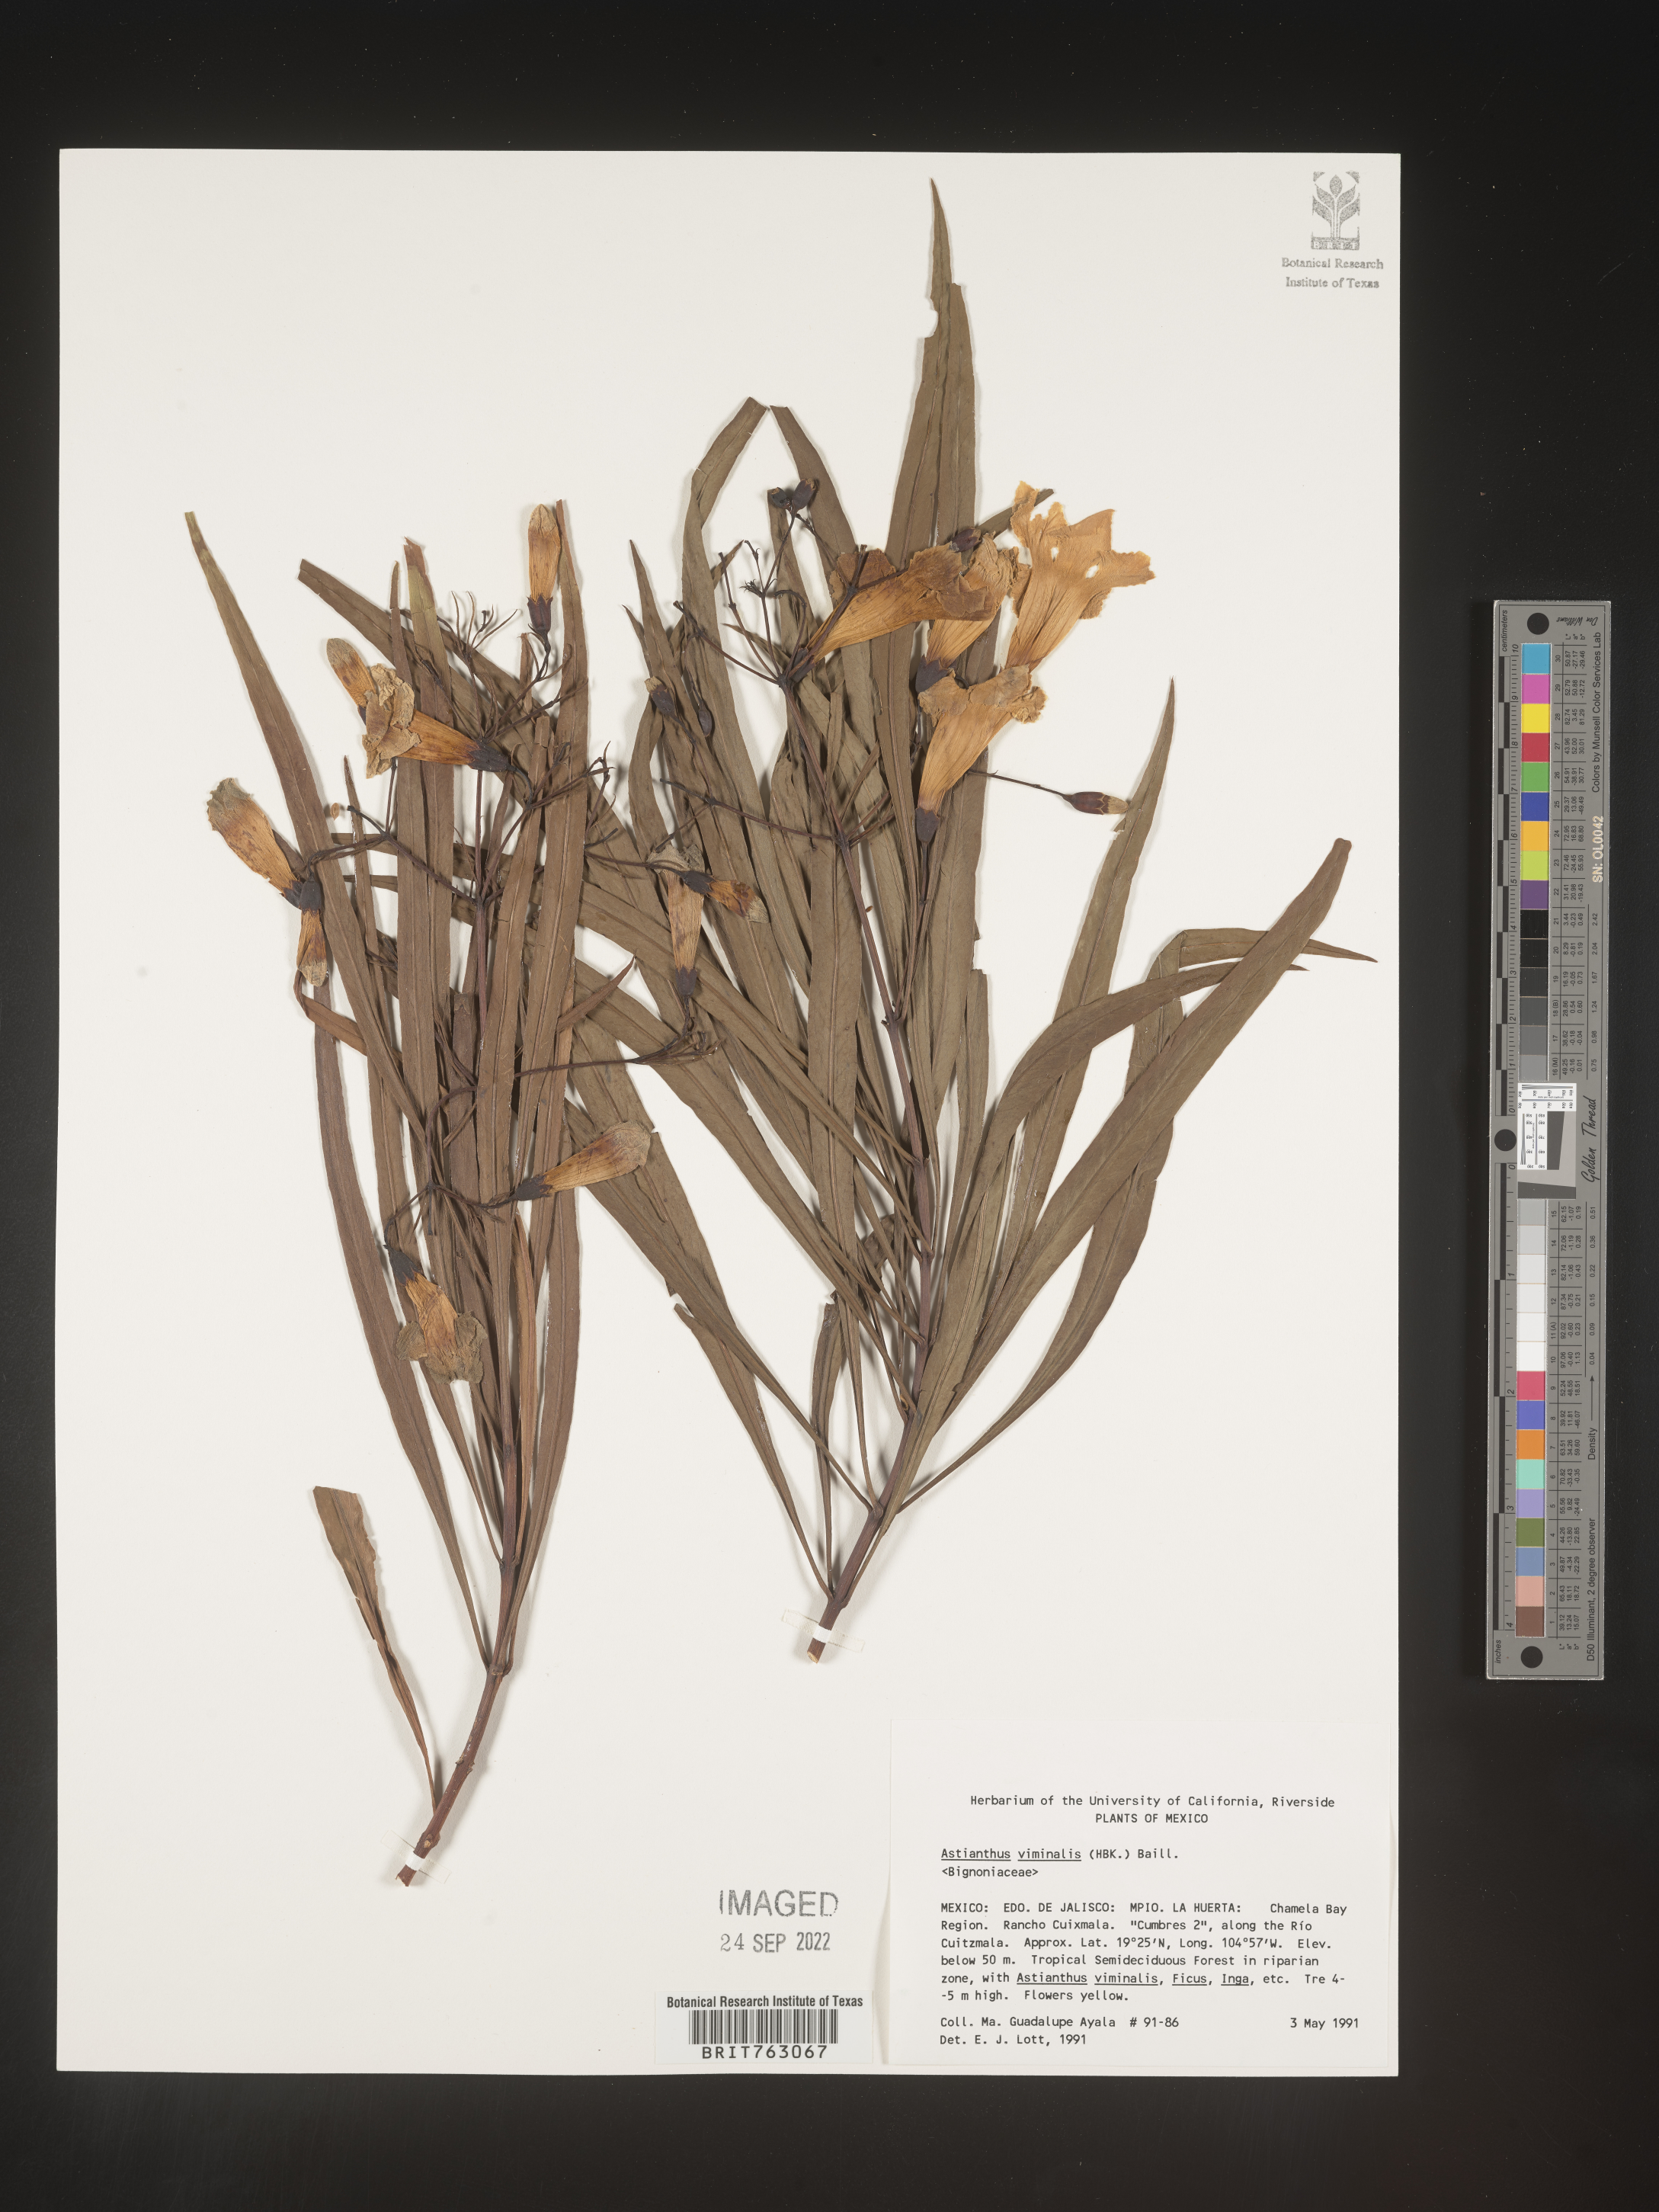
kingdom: Plantae
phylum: Tracheophyta
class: Magnoliopsida
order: Lamiales
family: Bignoniaceae
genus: Astianthus
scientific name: Astianthus
